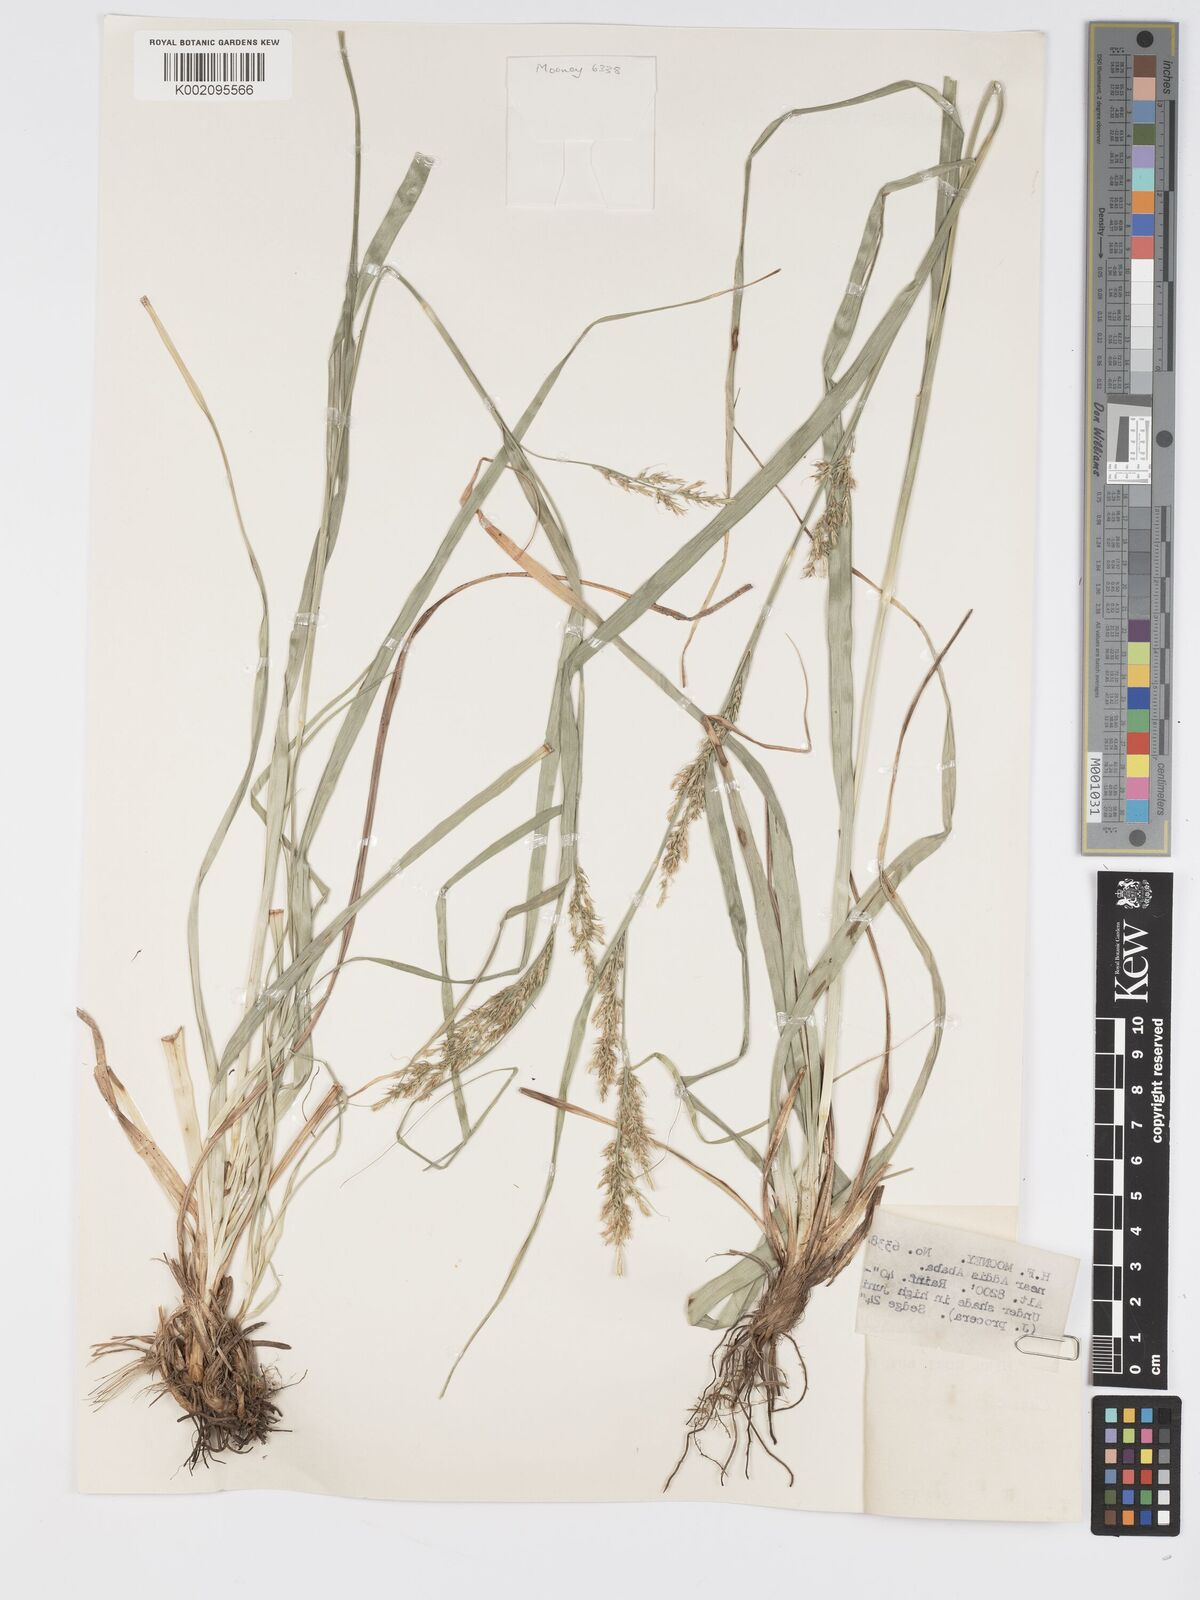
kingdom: Plantae
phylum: Tracheophyta
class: Liliopsida
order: Poales
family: Cyperaceae
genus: Carex
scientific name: Carex chlorosaccus
